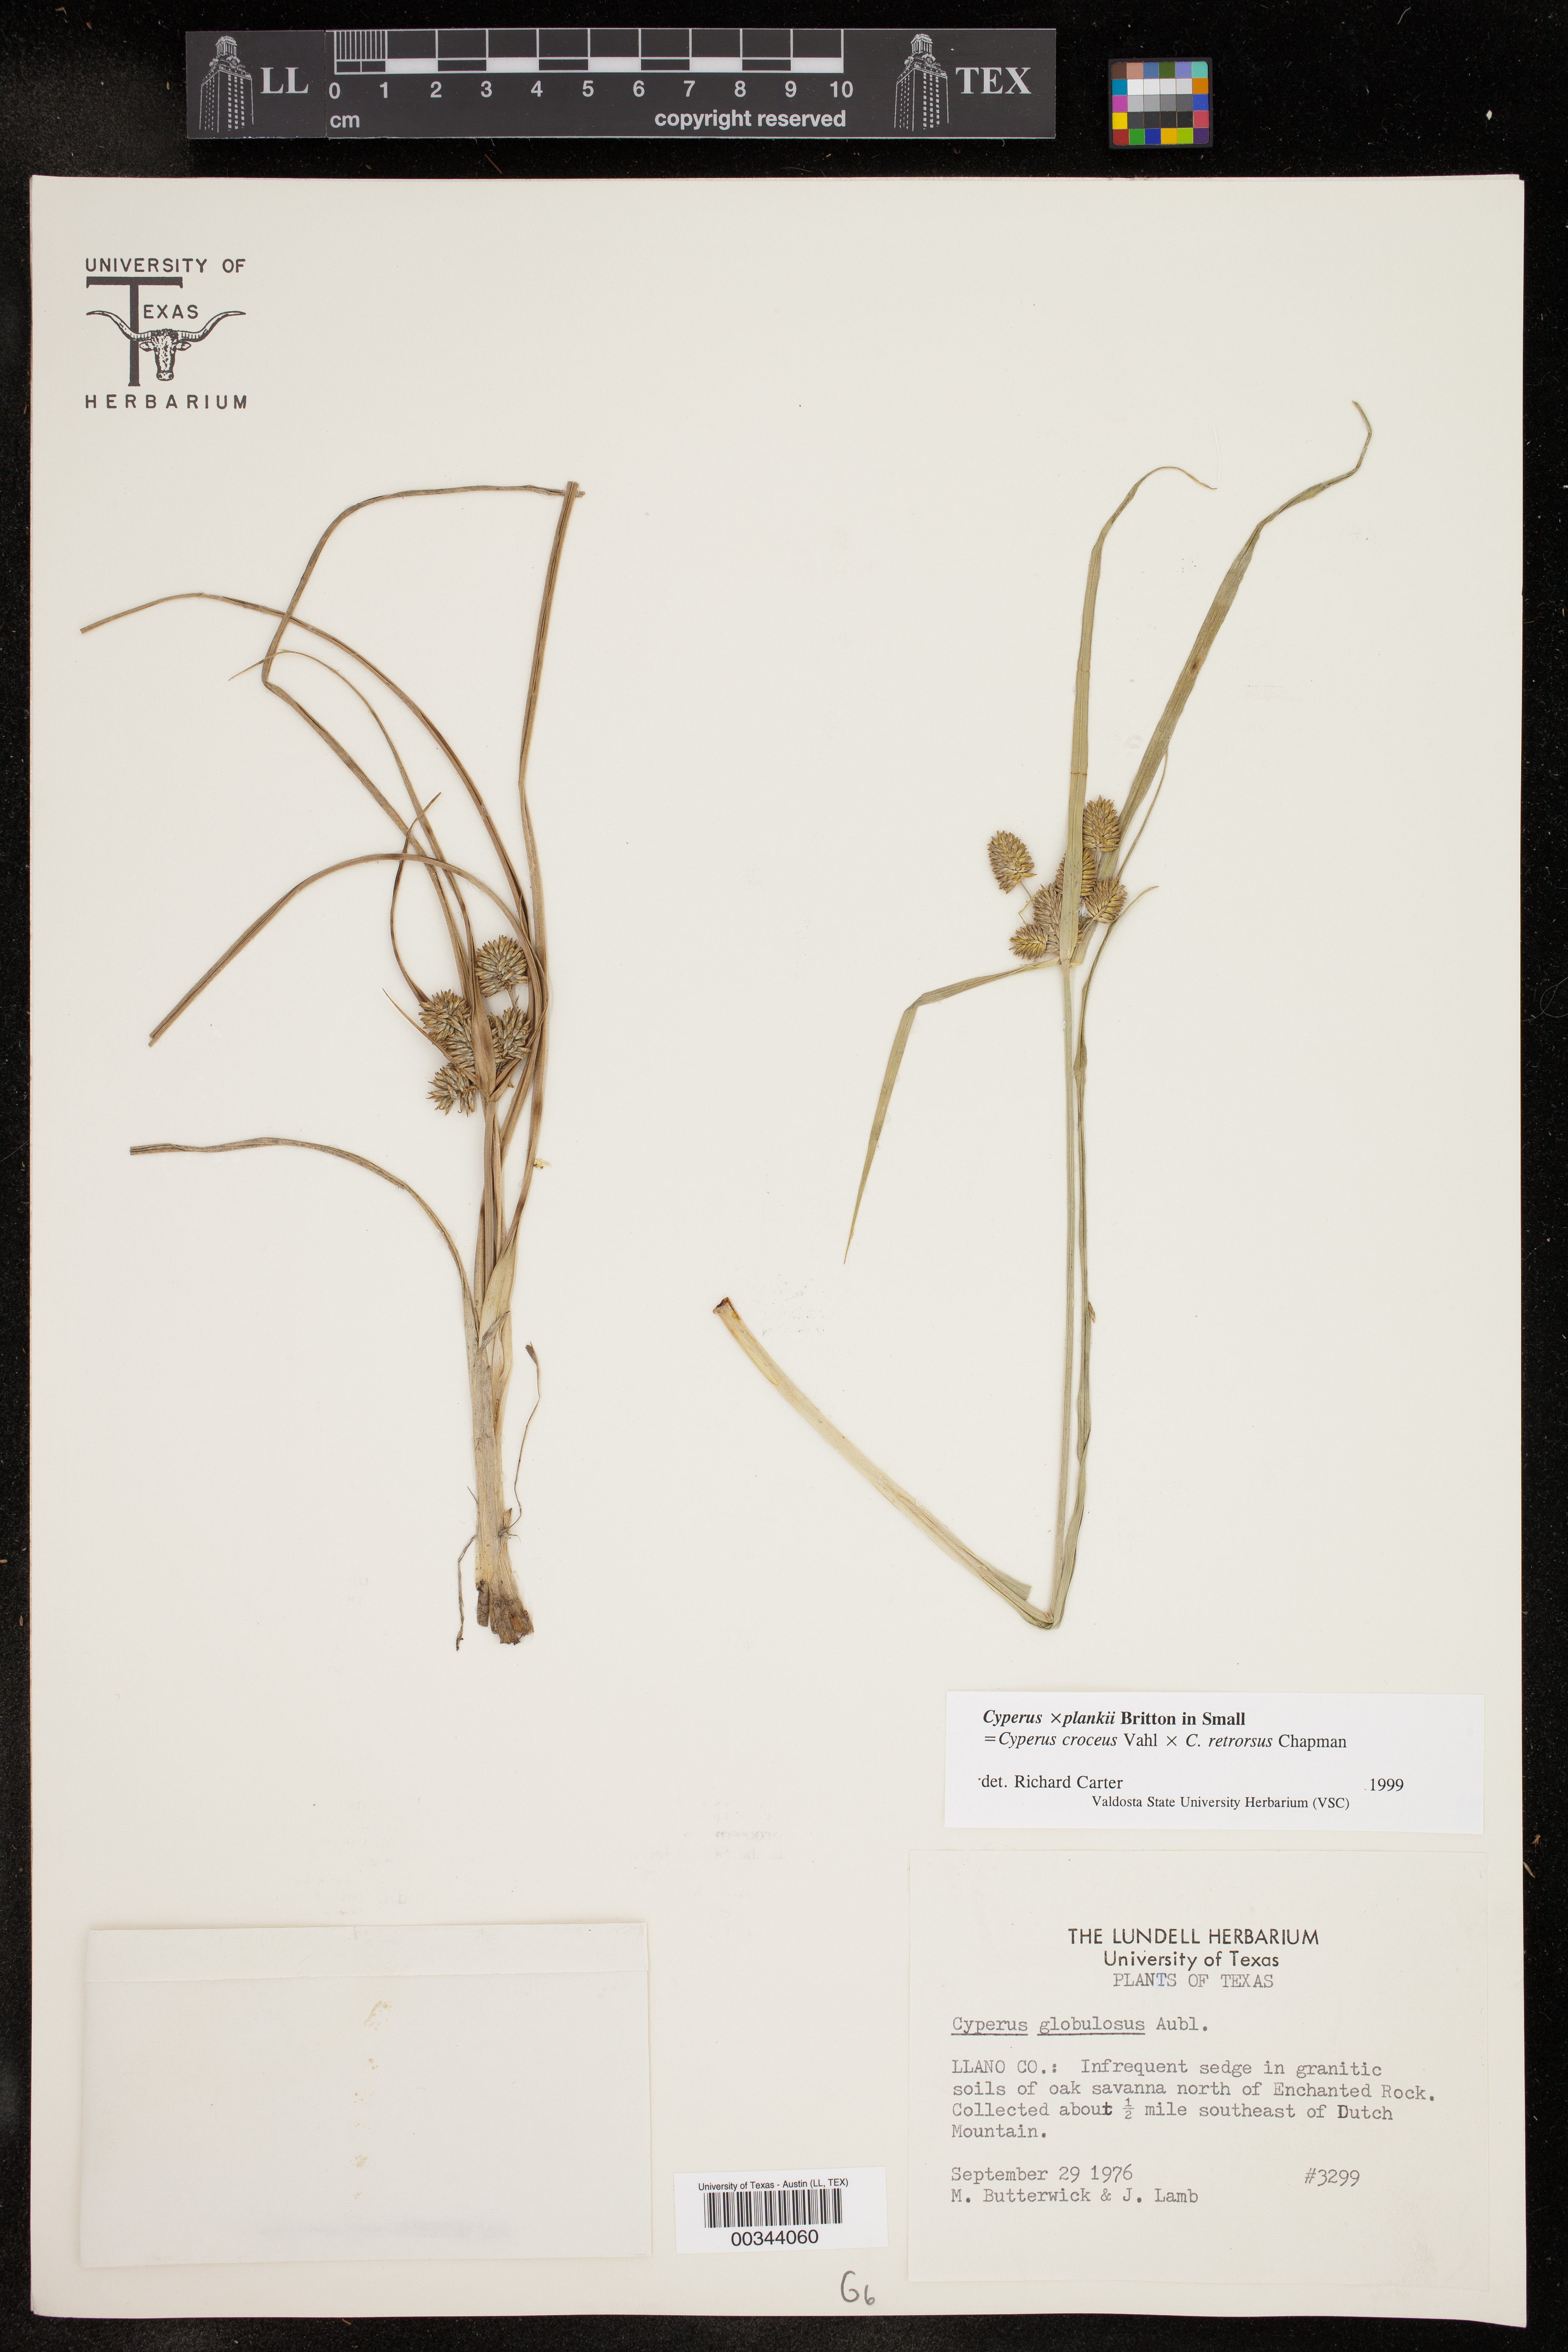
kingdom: Plantae
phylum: Tracheophyta
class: Liliopsida
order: Poales
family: Cyperaceae
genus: Cyperus
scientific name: Cyperus
